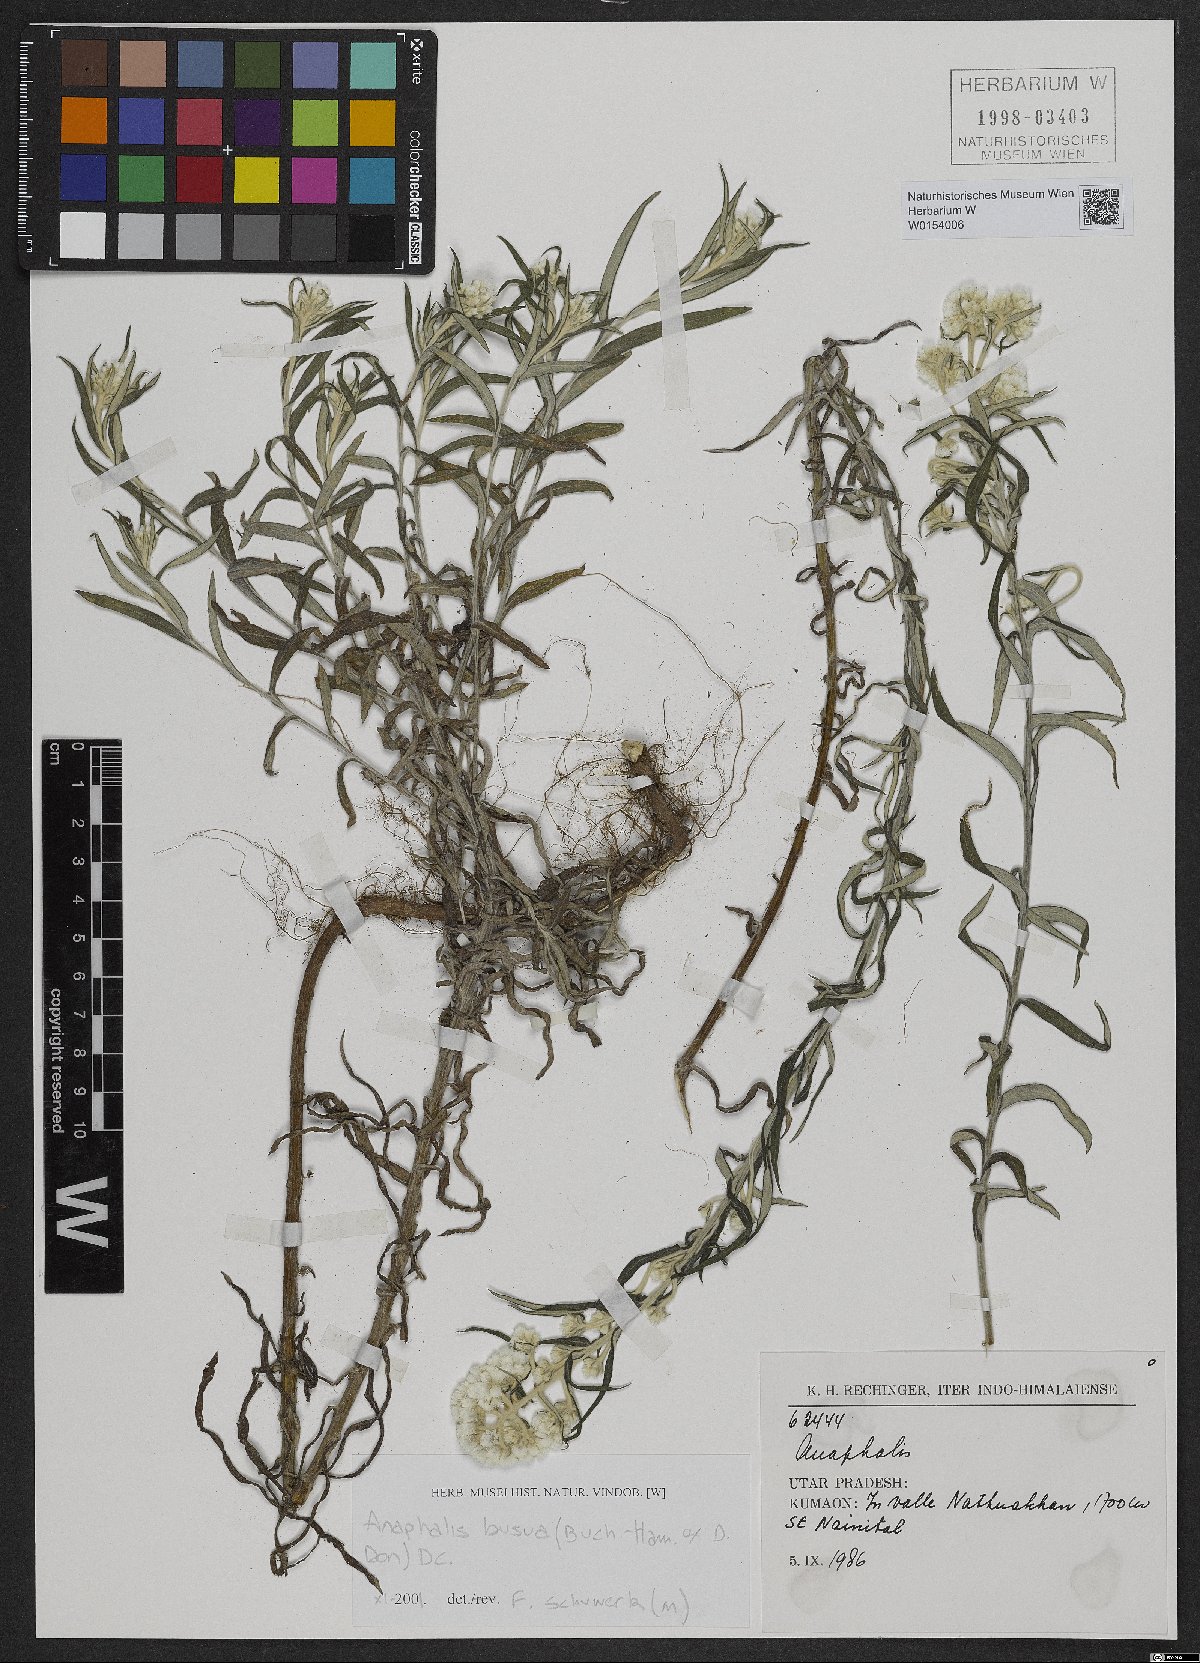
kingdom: Plantae
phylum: Tracheophyta
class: Magnoliopsida
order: Asterales
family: Asteraceae
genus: Anaphalis
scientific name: Anaphalis busua
